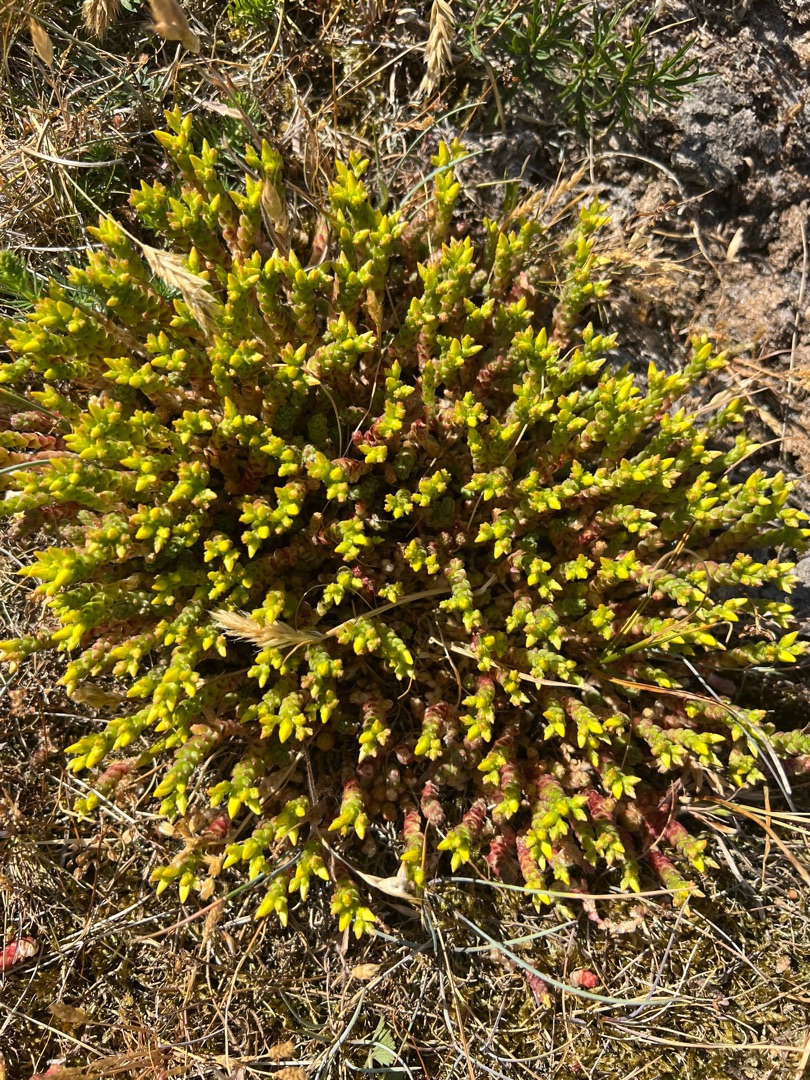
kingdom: Plantae
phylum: Tracheophyta
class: Magnoliopsida
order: Saxifragales
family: Crassulaceae
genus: Sedum
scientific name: Sedum acre
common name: Bidende stenurt
